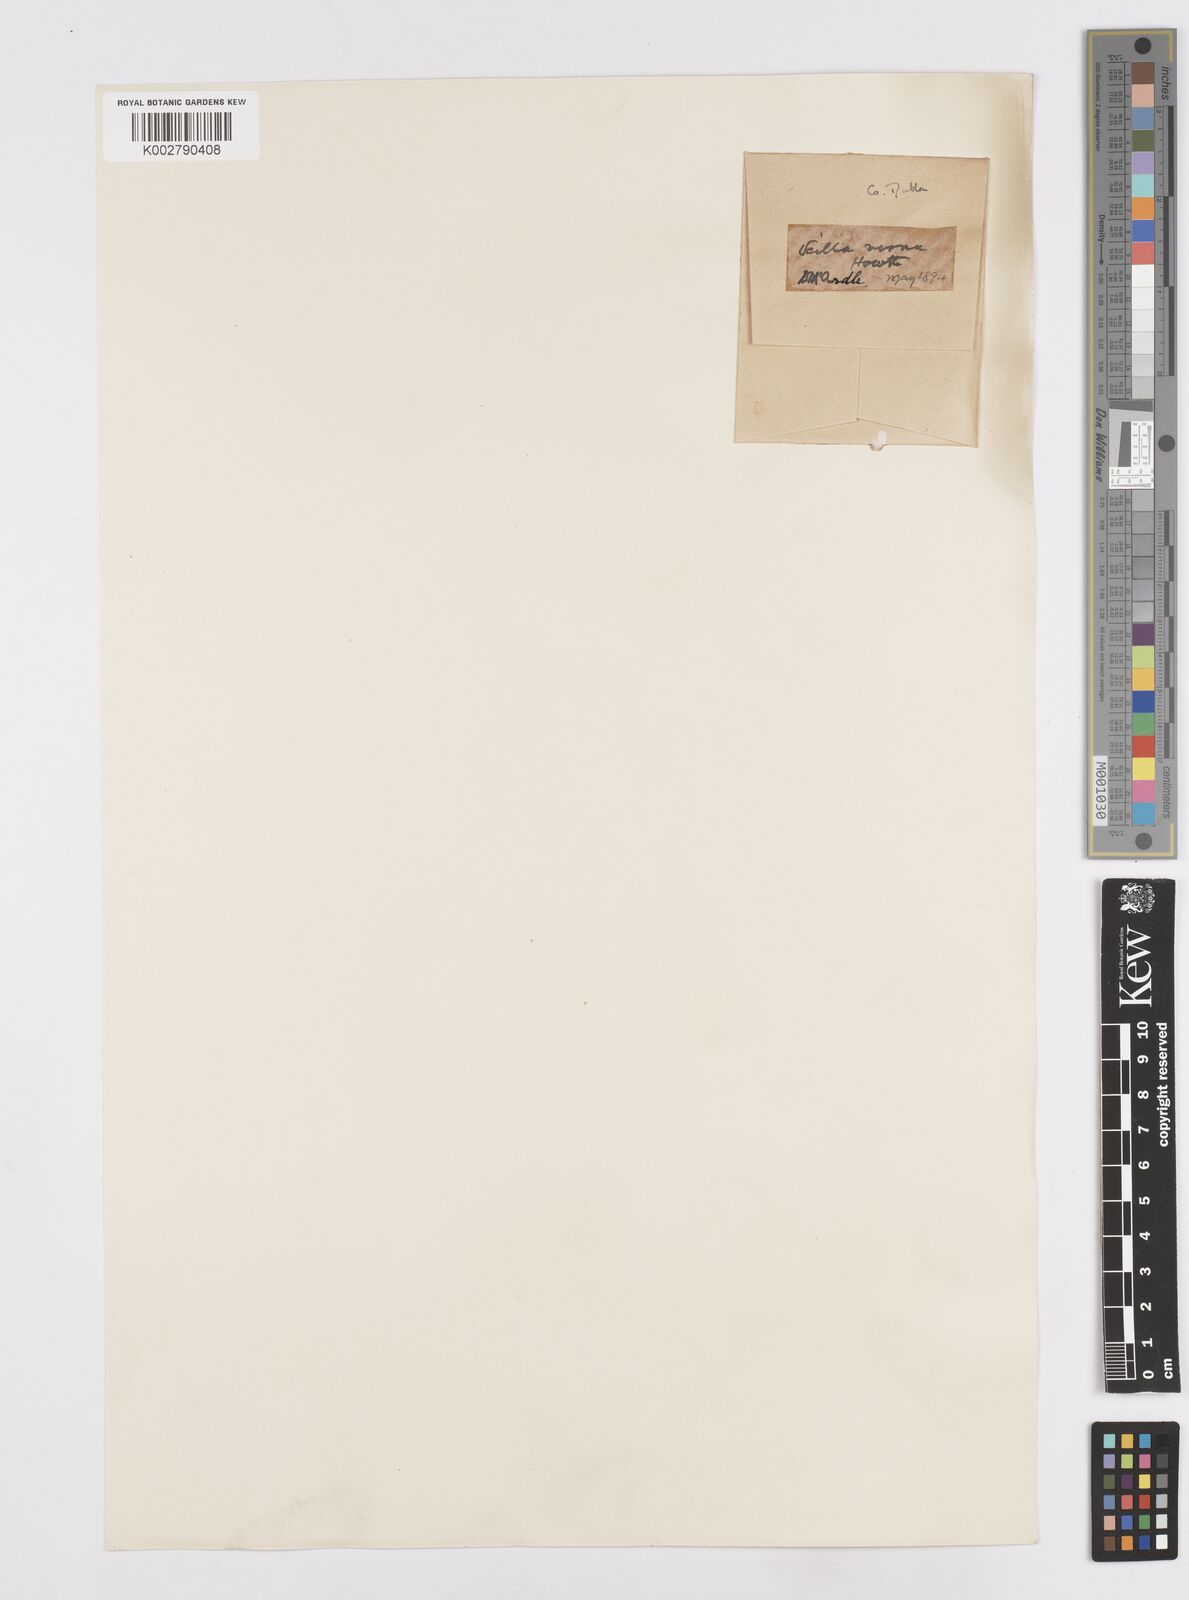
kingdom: Plantae
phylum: Tracheophyta
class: Liliopsida
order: Asparagales
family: Asparagaceae
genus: Scilla
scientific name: Scilla verna
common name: Spring squill
